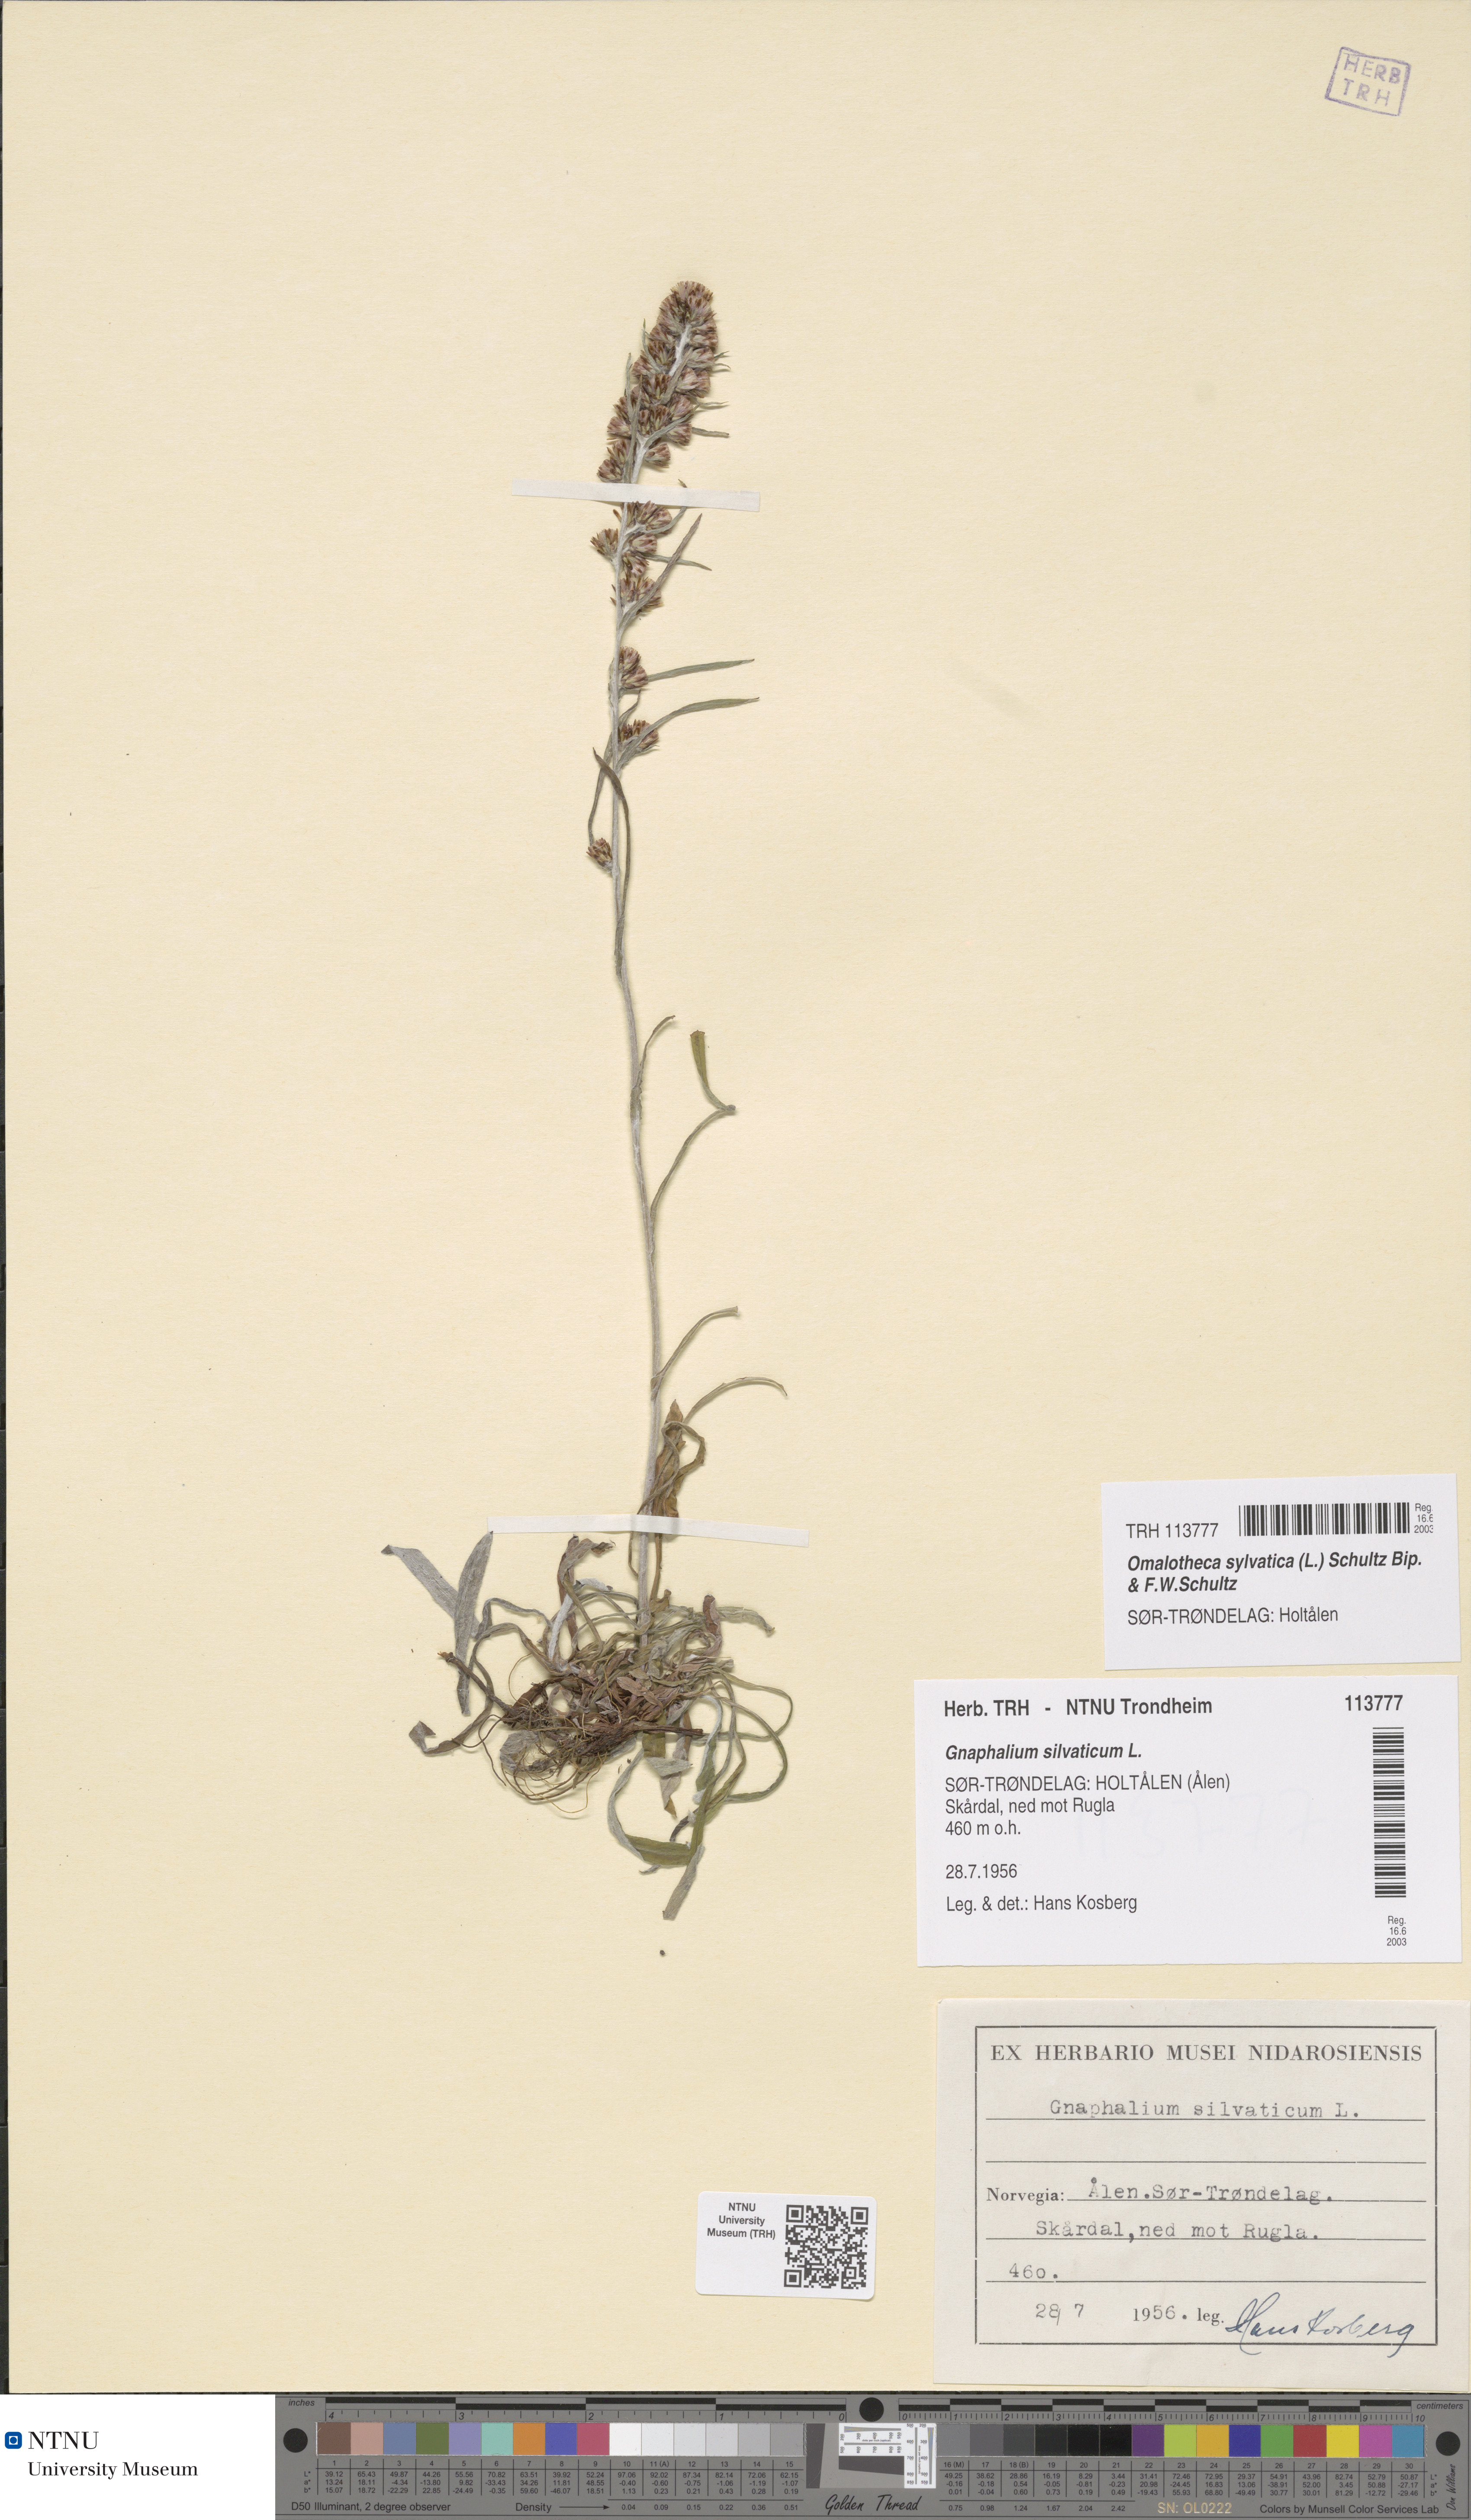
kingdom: Plantae
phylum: Tracheophyta
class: Magnoliopsida
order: Asterales
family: Asteraceae
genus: Omalotheca
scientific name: Omalotheca sylvatica
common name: Heath cudweed
